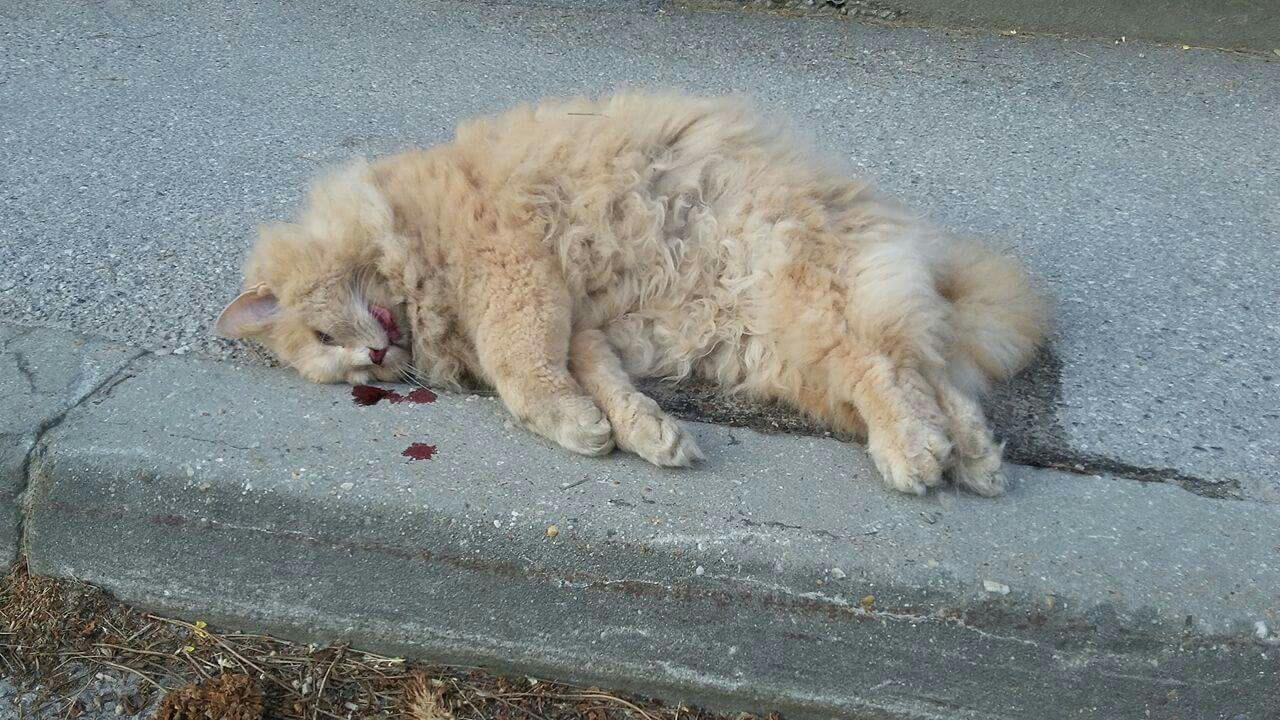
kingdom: Animalia
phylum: Chordata
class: Mammalia
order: Carnivora
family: Felidae
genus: Felis
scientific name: Felis catus
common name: Domestic cat
